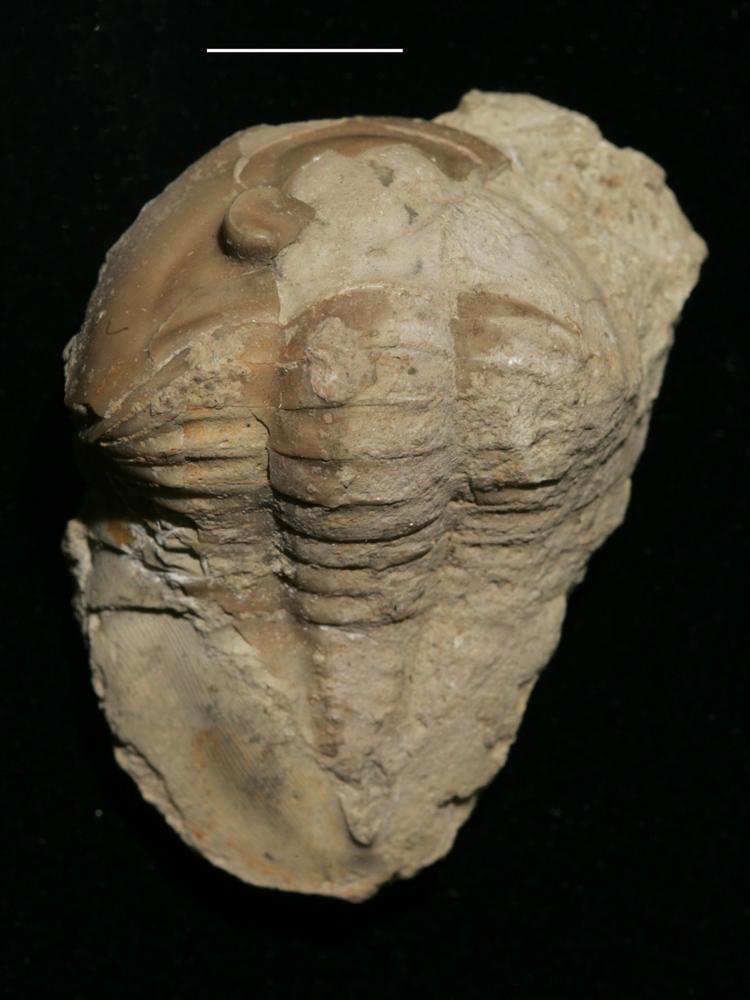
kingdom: Animalia
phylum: Arthropoda
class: Trilobita
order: Asaphida
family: Asaphidae
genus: Ptychopyge
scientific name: Ptychopyge
